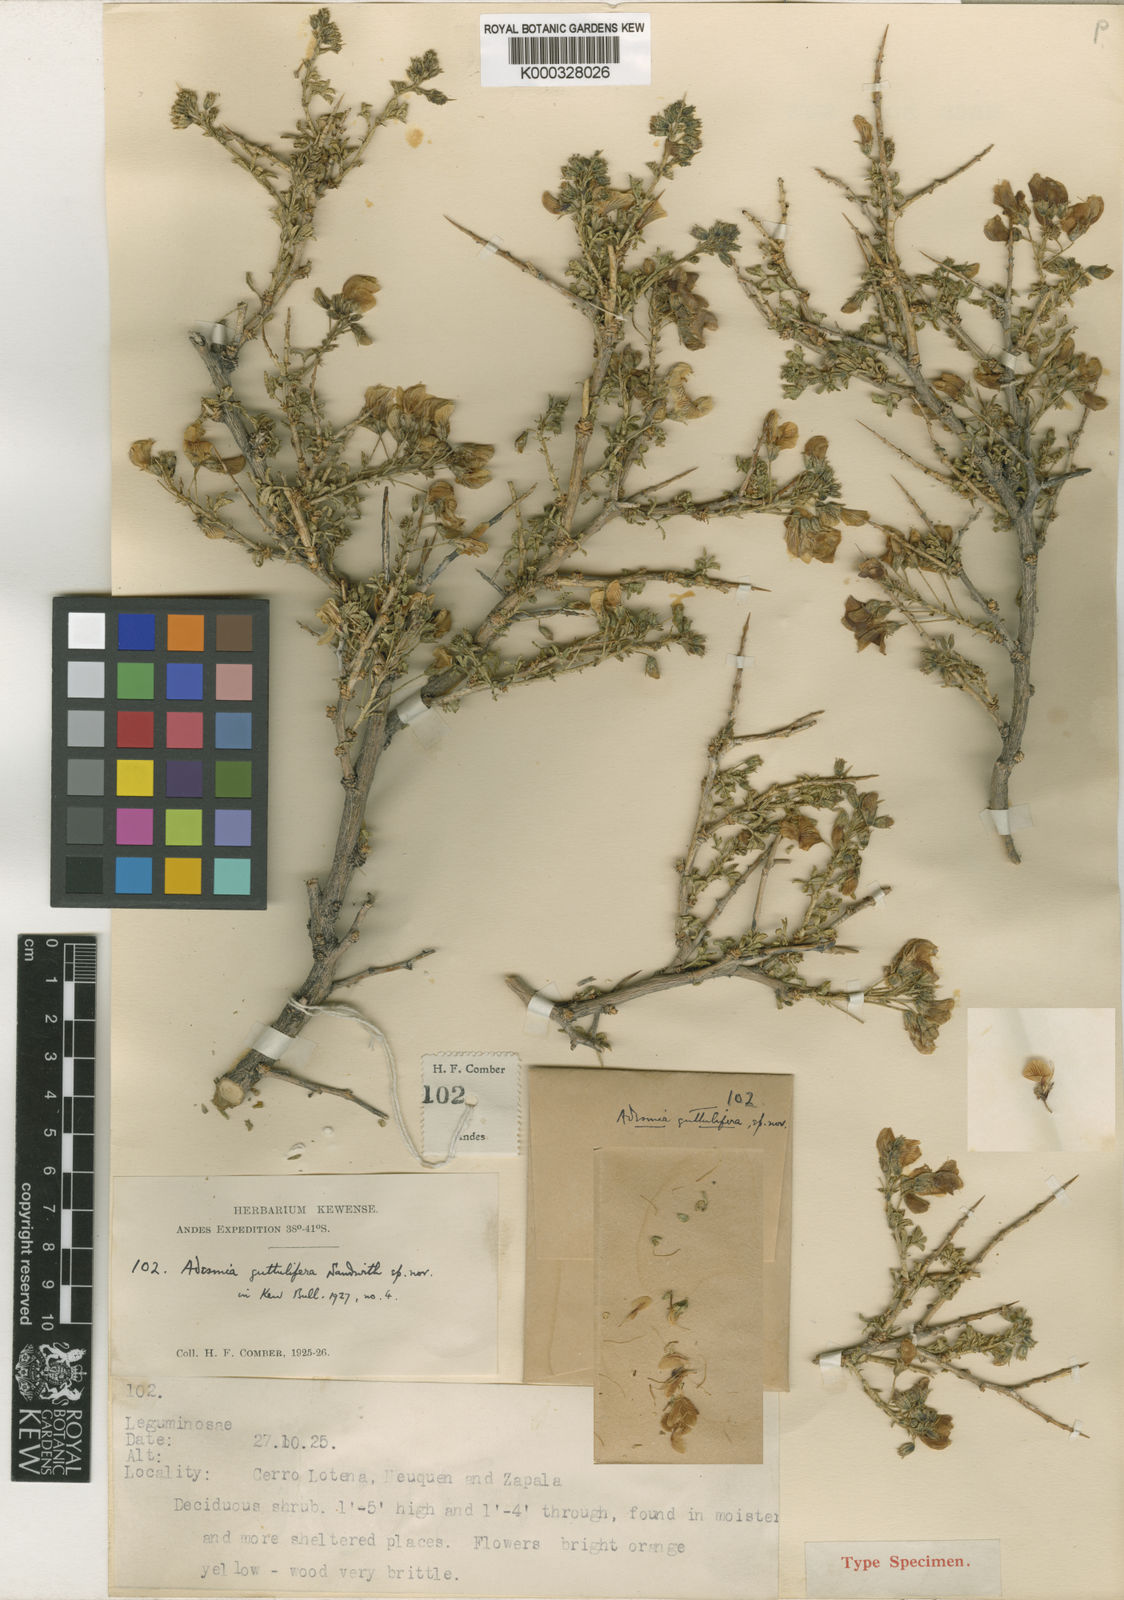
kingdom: Plantae
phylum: Tracheophyta
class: Magnoliopsida
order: Fabales
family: Fabaceae
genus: Adesmia
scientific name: Adesmia guttulifera
